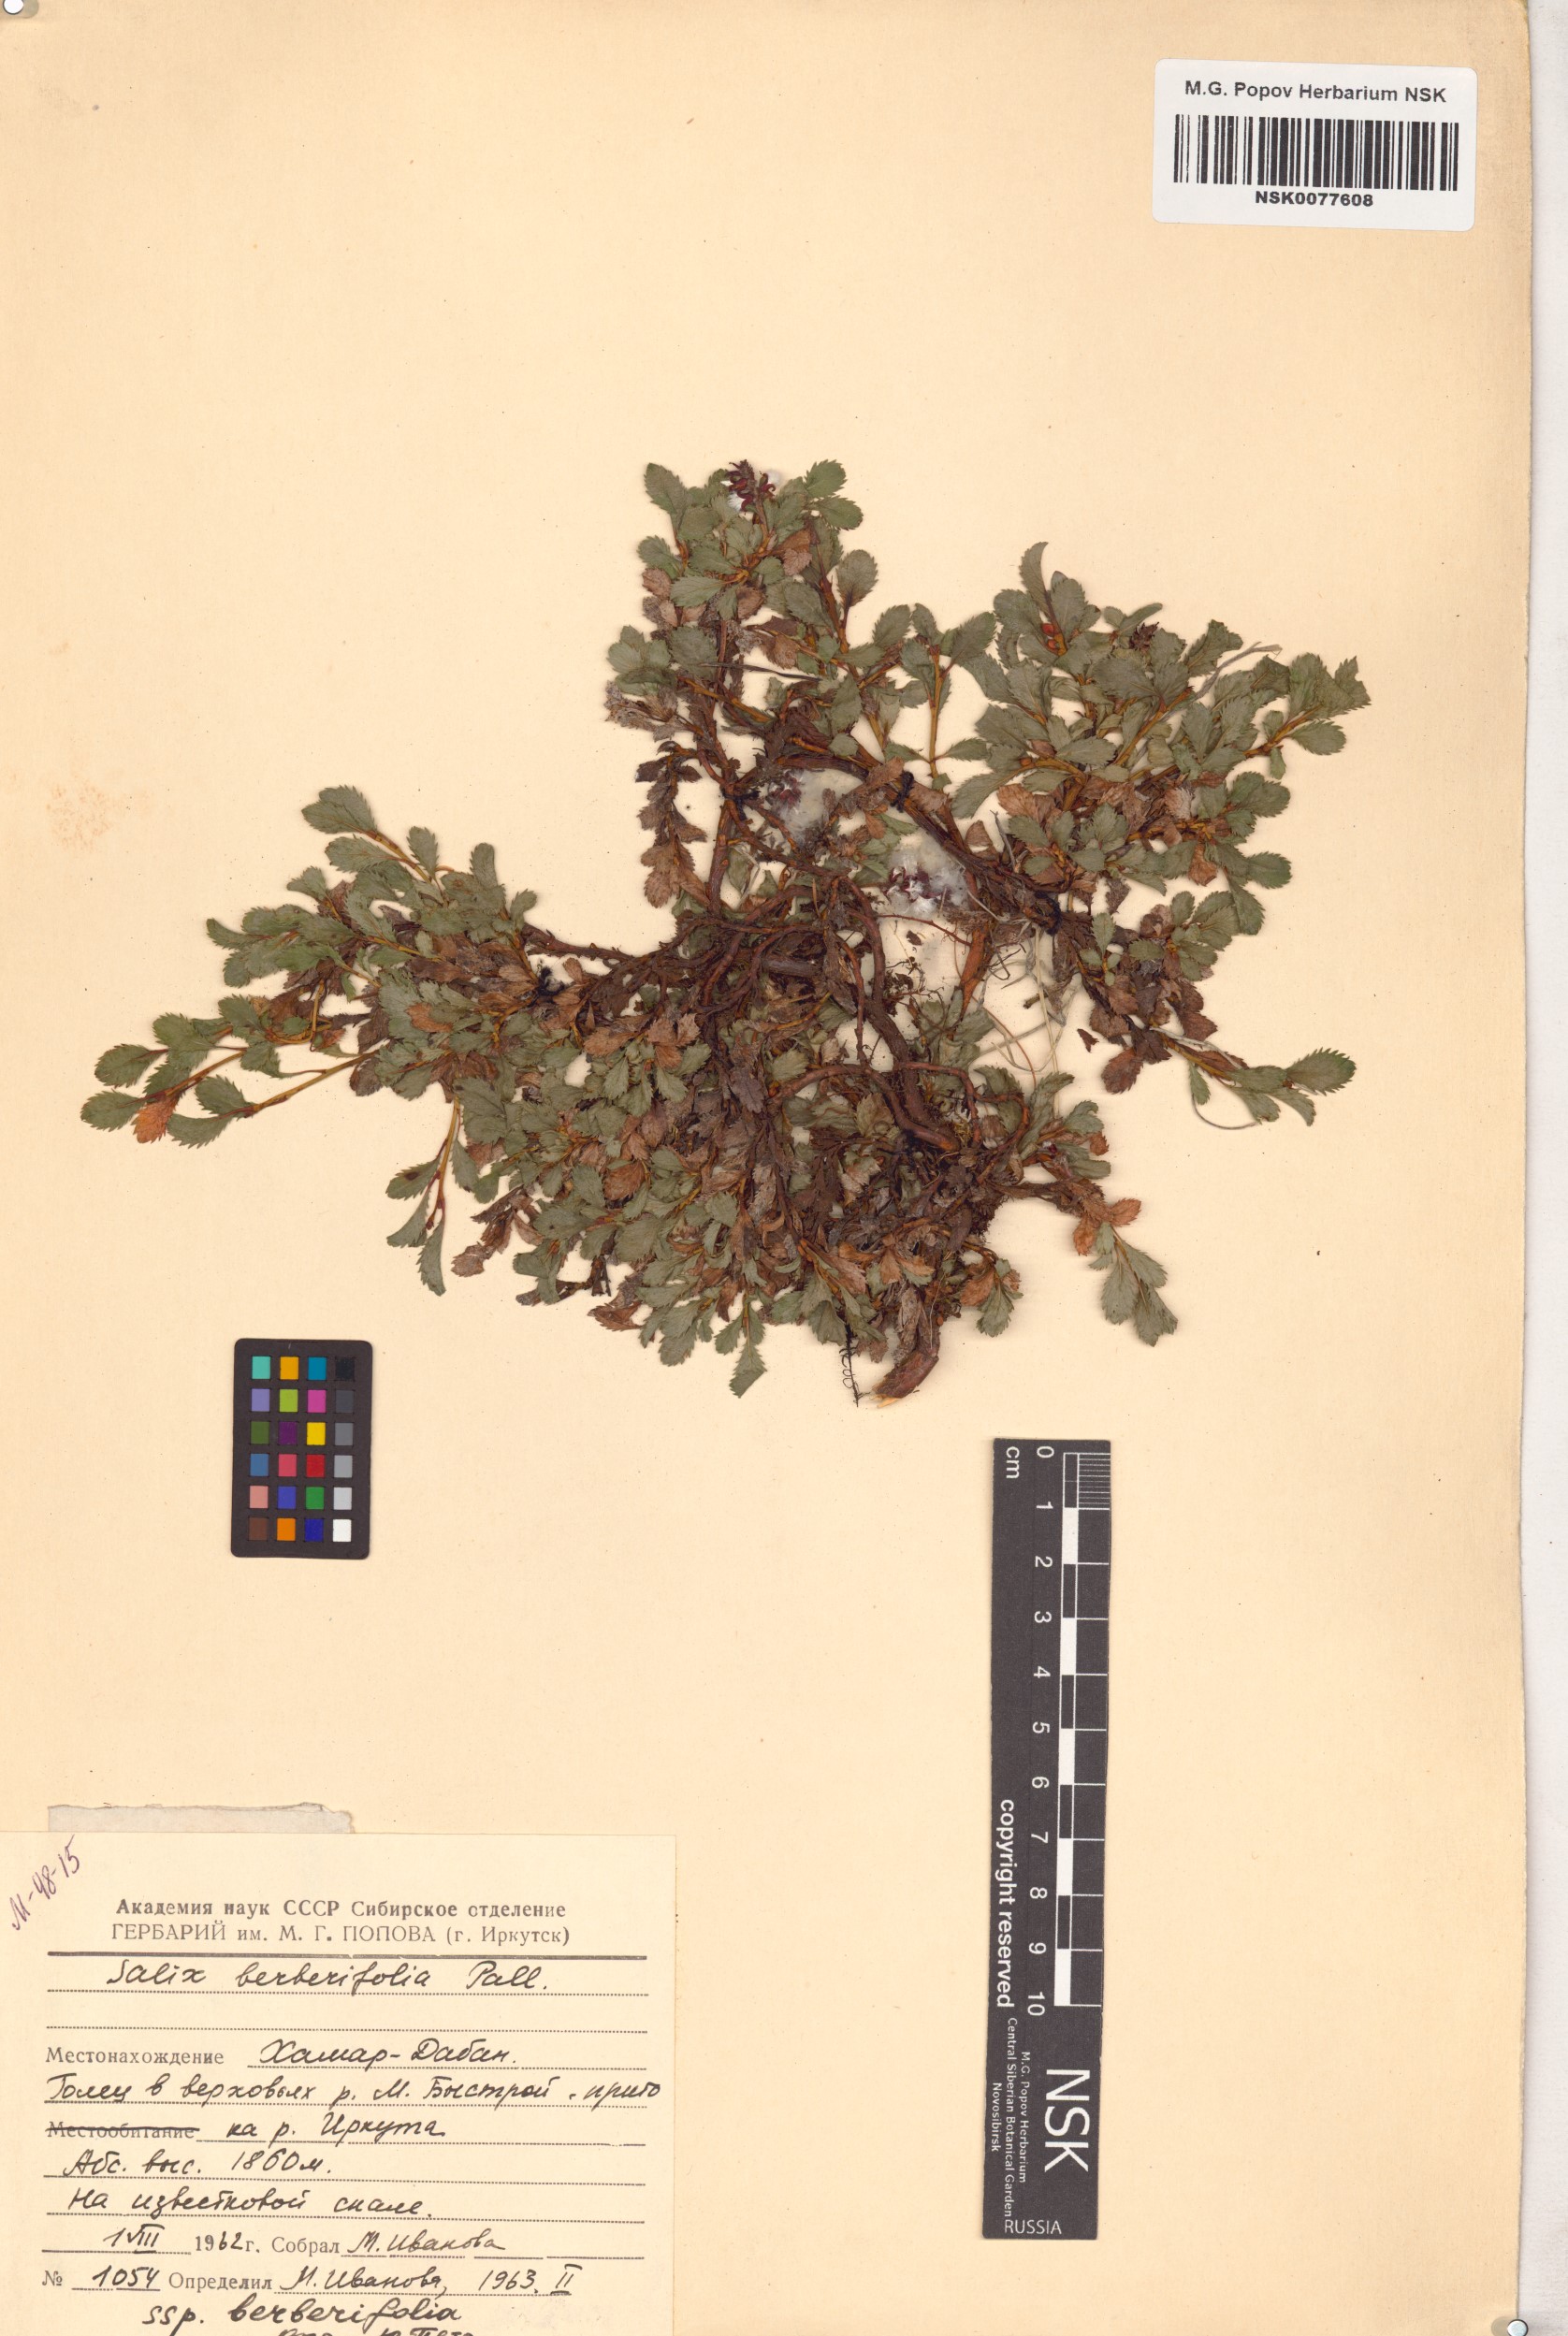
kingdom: Plantae
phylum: Tracheophyta
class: Magnoliopsida
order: Malpighiales
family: Salicaceae
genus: Salix
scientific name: Salix berberifolia
